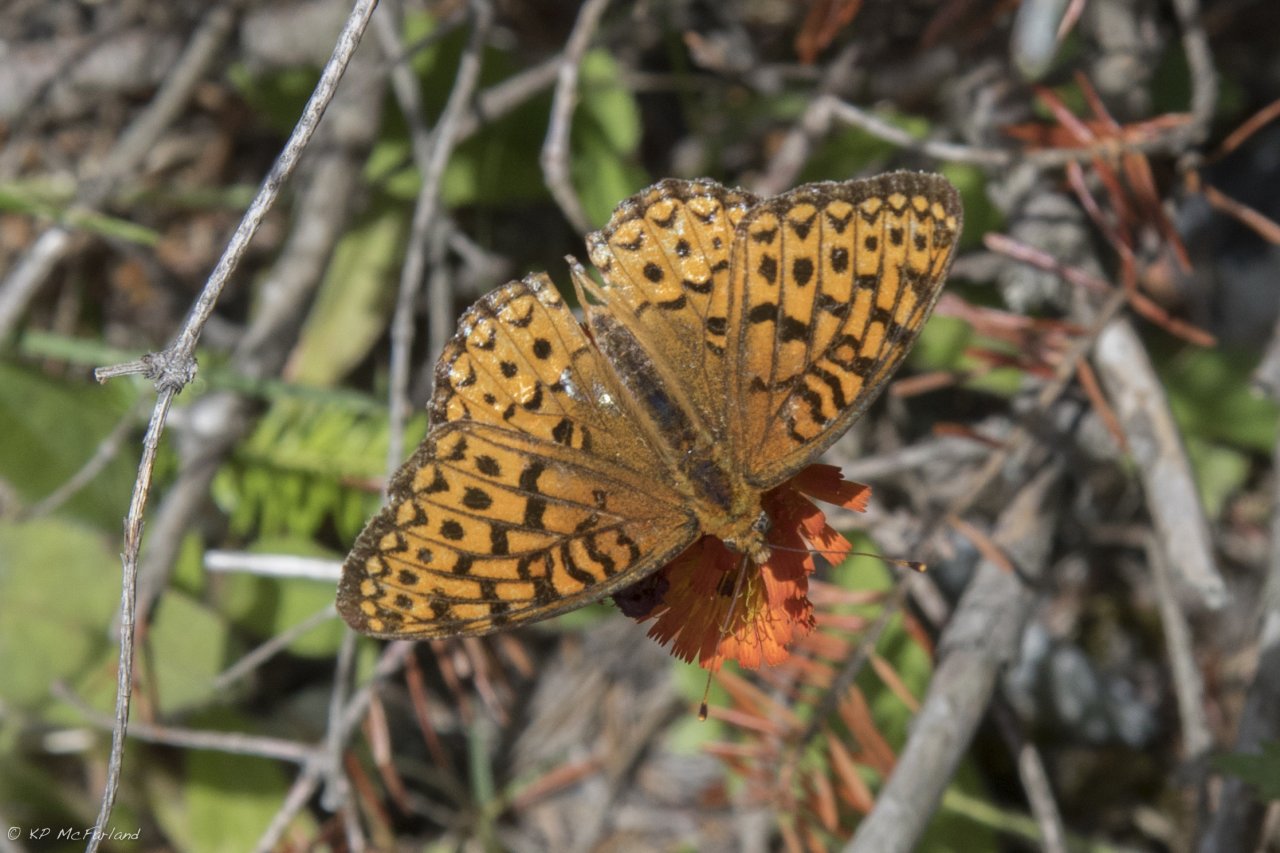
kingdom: Animalia
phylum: Arthropoda
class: Insecta
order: Lepidoptera
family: Nymphalidae
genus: Speyeria
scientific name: Speyeria atlantis
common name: Atlantis Fritillary
